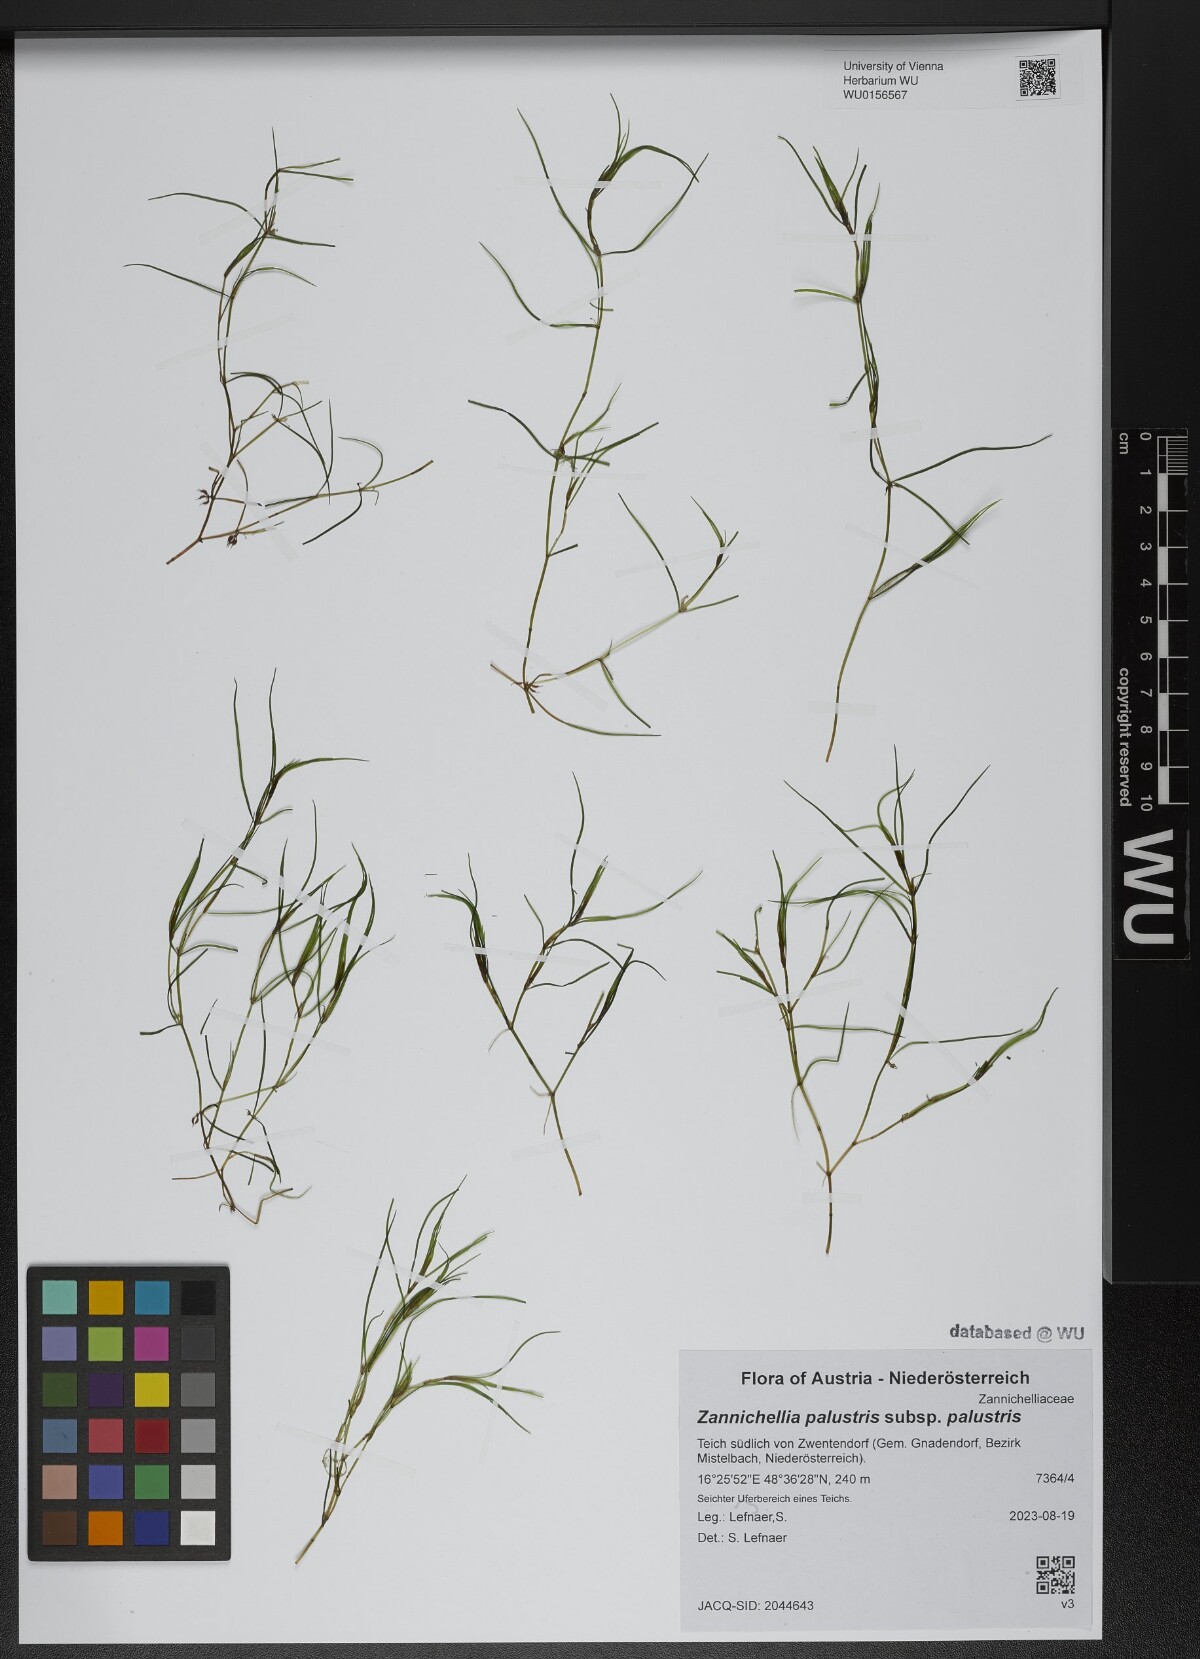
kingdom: Plantae
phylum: Tracheophyta
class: Liliopsida
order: Alismatales
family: Potamogetonaceae
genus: Zannichellia
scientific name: Zannichellia palustris
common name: Horned pondweed
